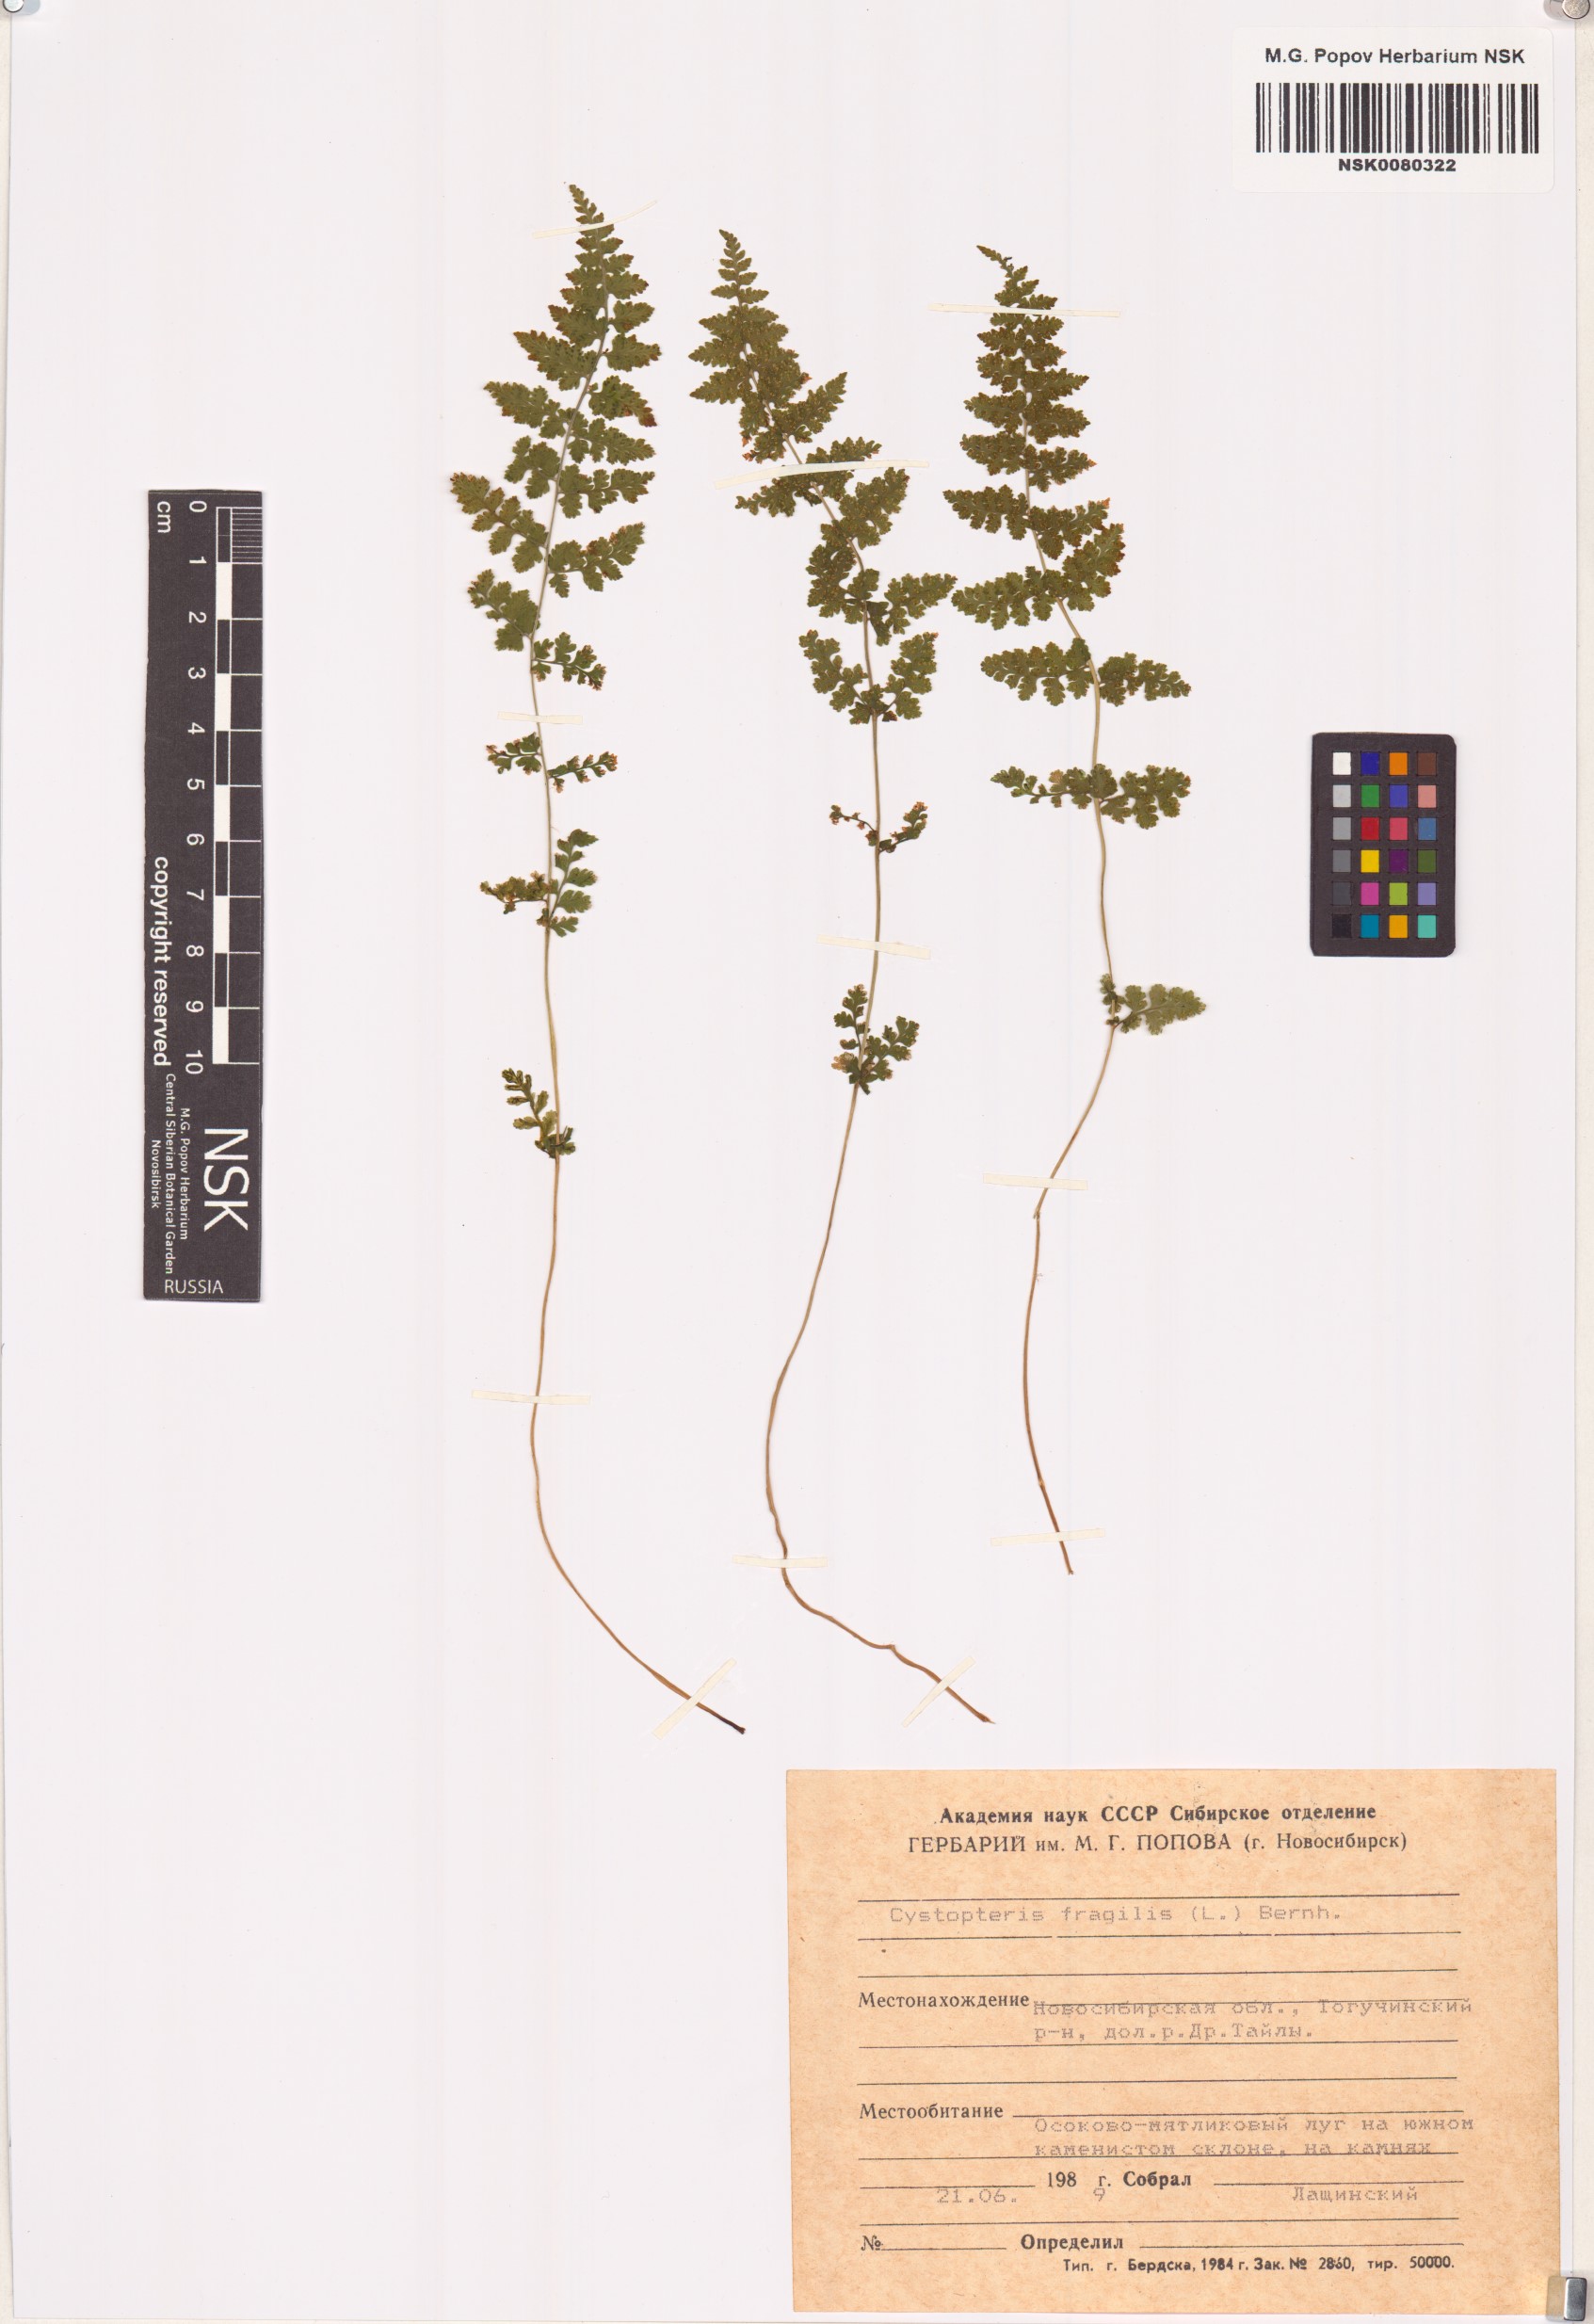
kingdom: Plantae
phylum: Tracheophyta
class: Polypodiopsida
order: Polypodiales
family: Cystopteridaceae
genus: Cystopteris
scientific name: Cystopteris fragilis
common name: Brittle bladder fern
